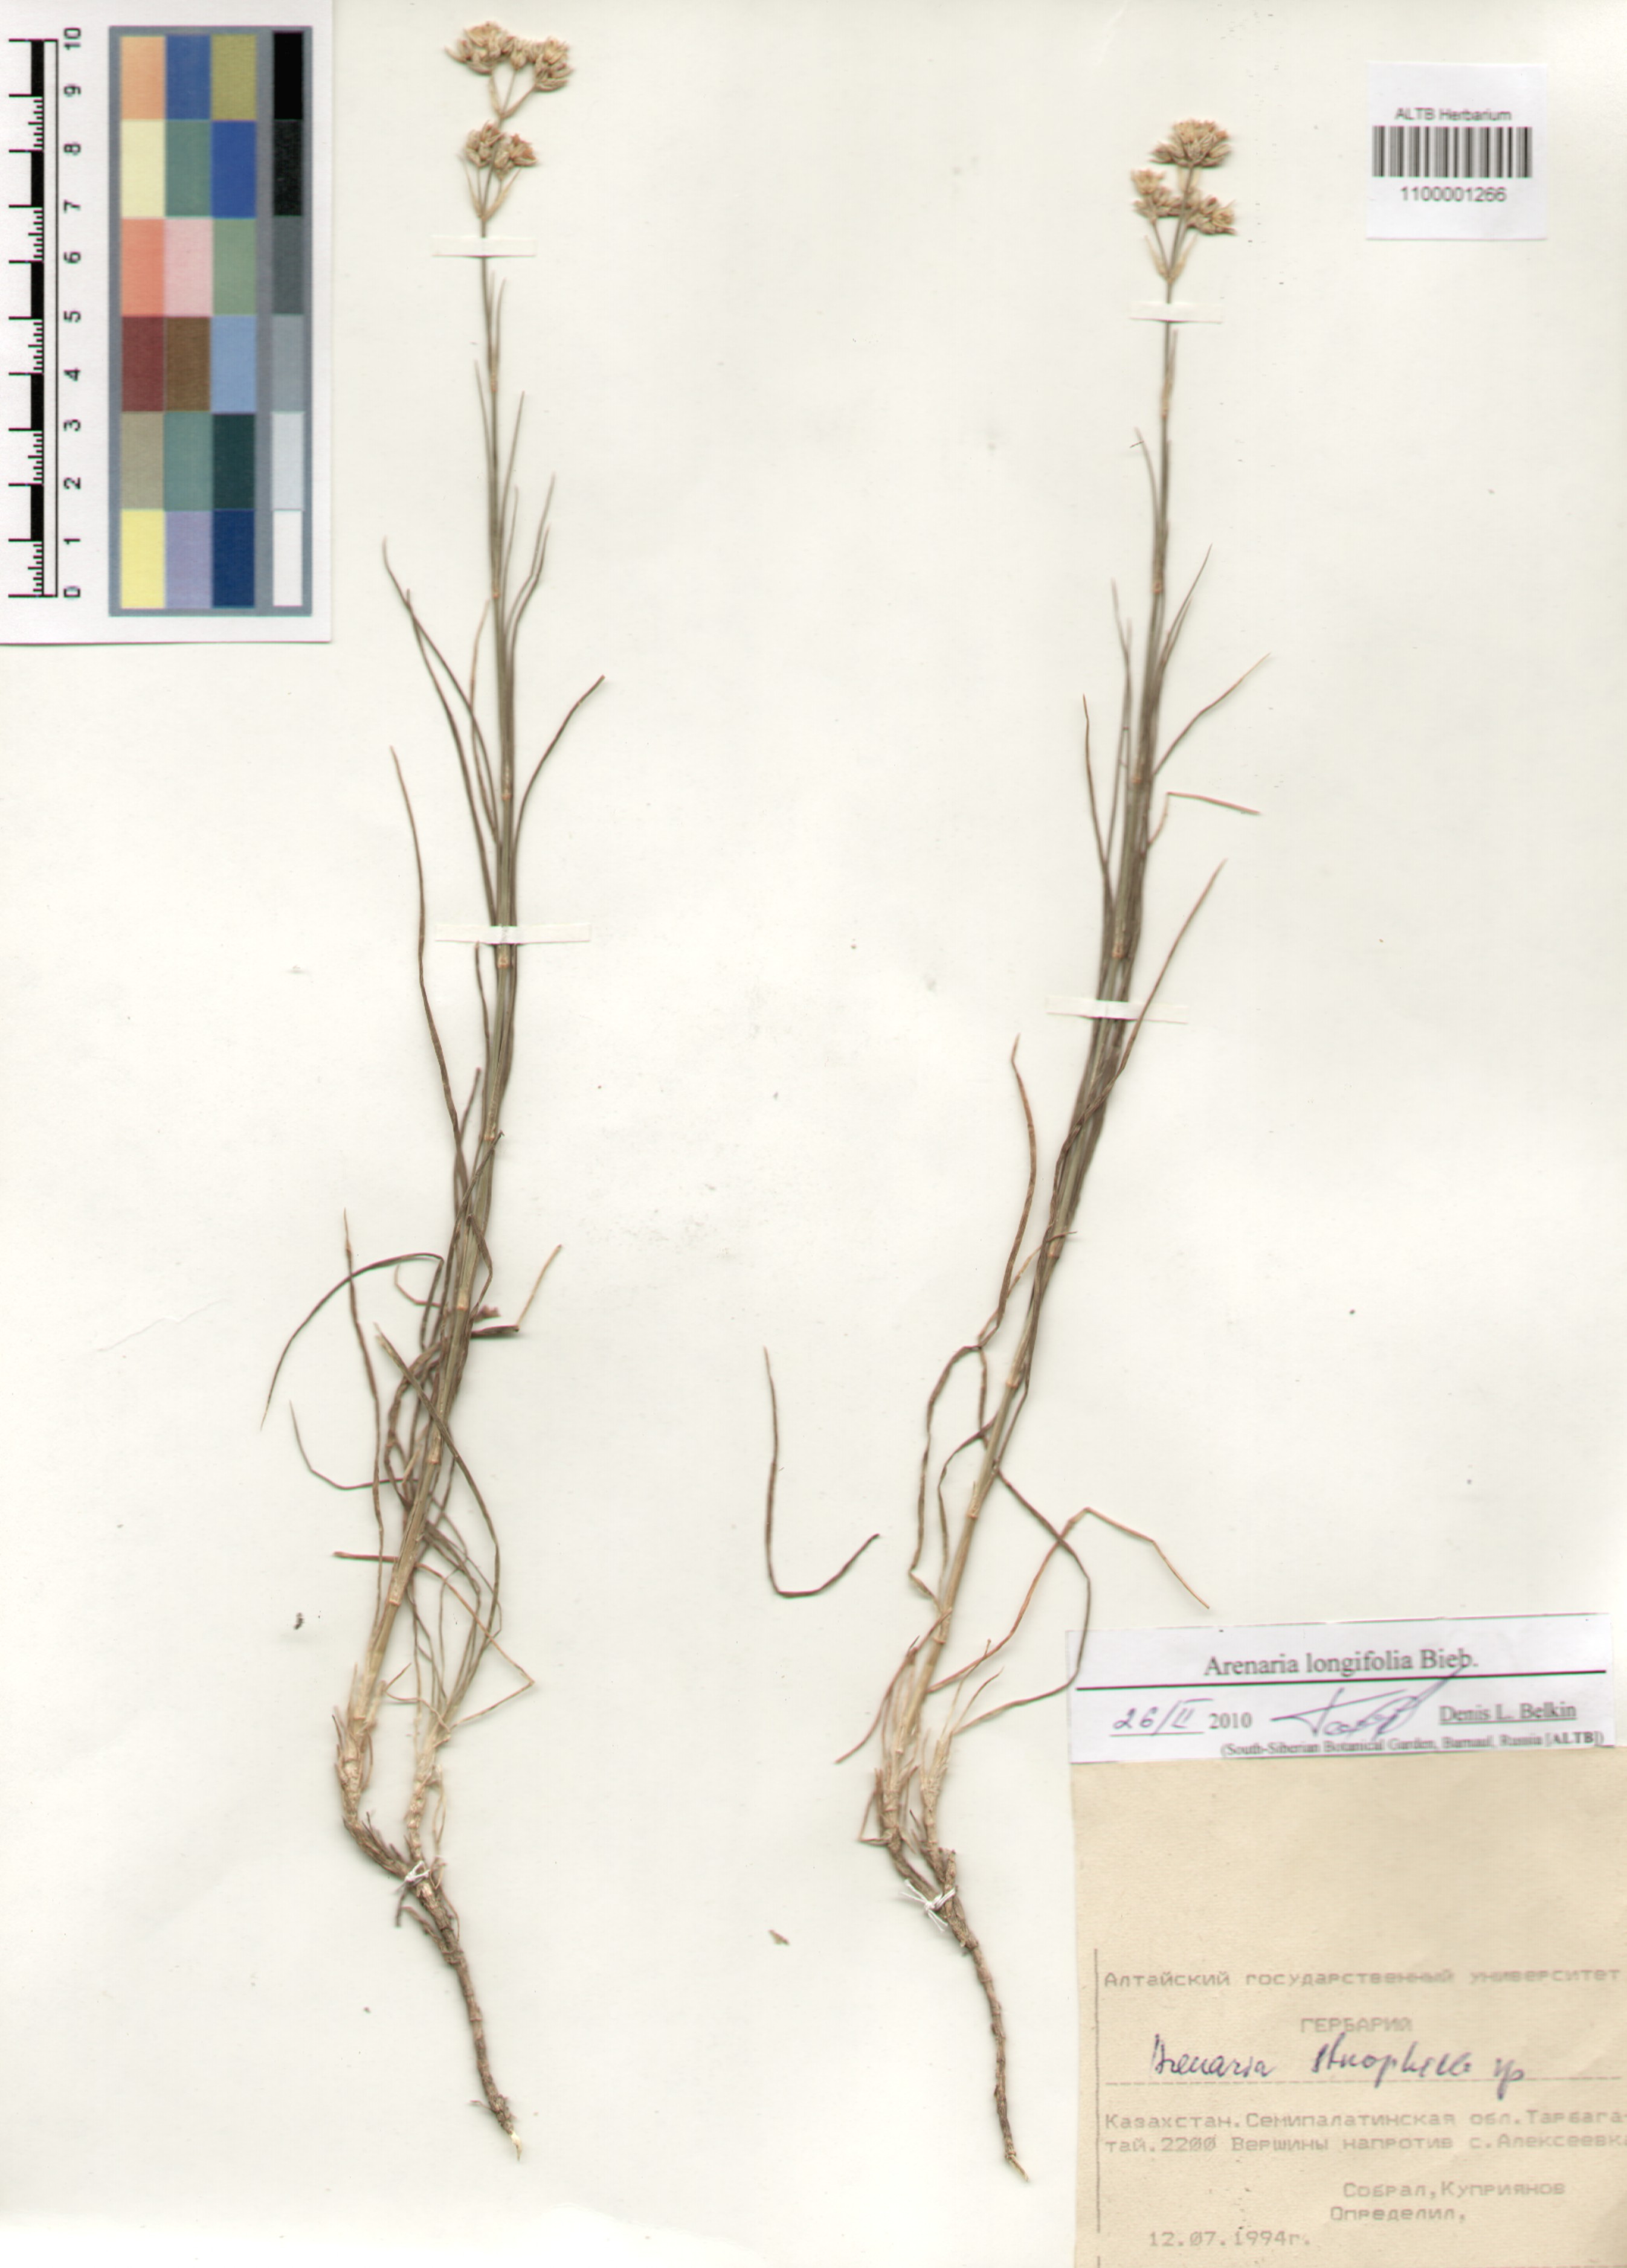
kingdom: Plantae
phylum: Tracheophyta
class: Magnoliopsida
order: Caryophyllales
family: Caryophyllaceae
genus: Eremogone
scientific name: Eremogone longifolia
